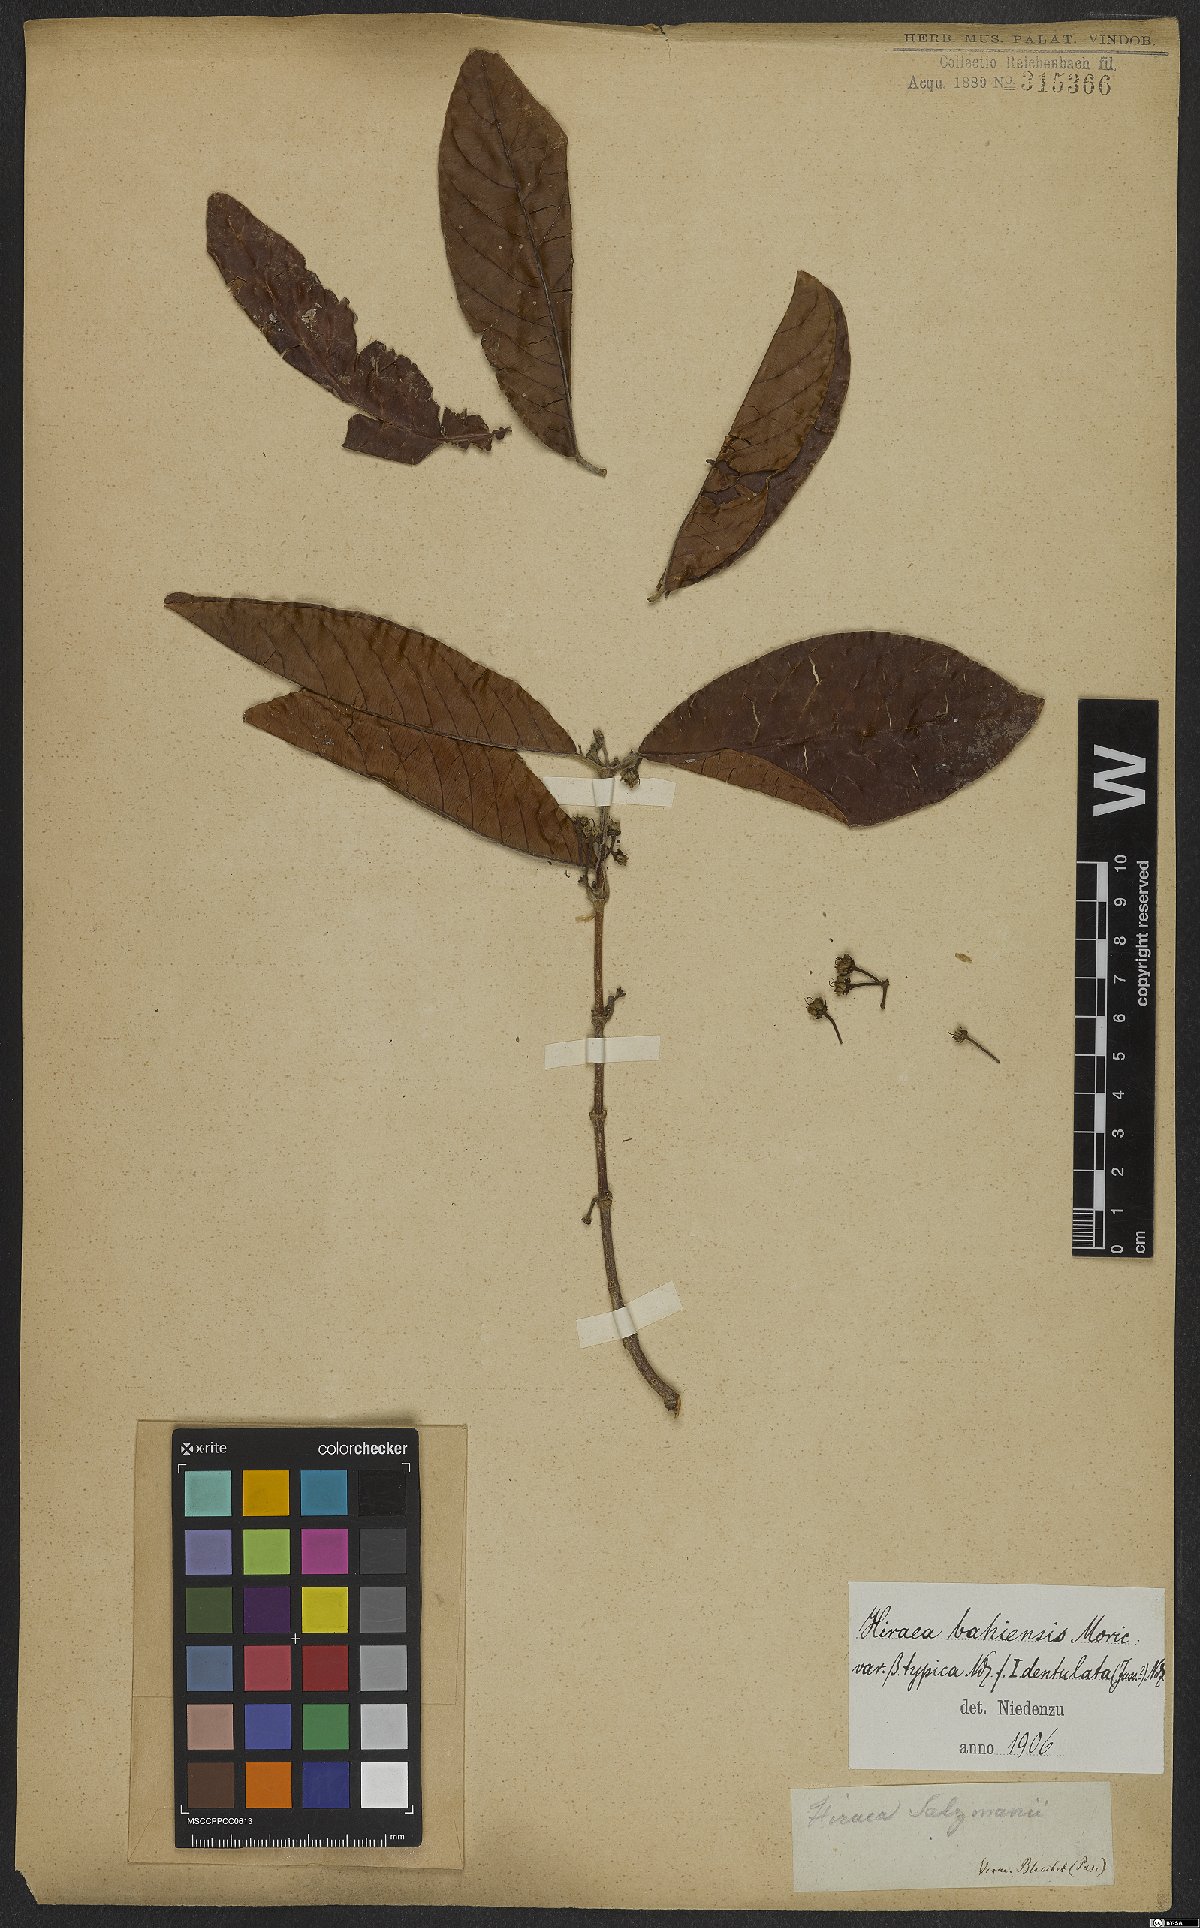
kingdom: Plantae
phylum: Tracheophyta
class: Magnoliopsida
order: Malpighiales
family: Malpighiaceae
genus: Hiraea
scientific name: Hiraea fagifolia
